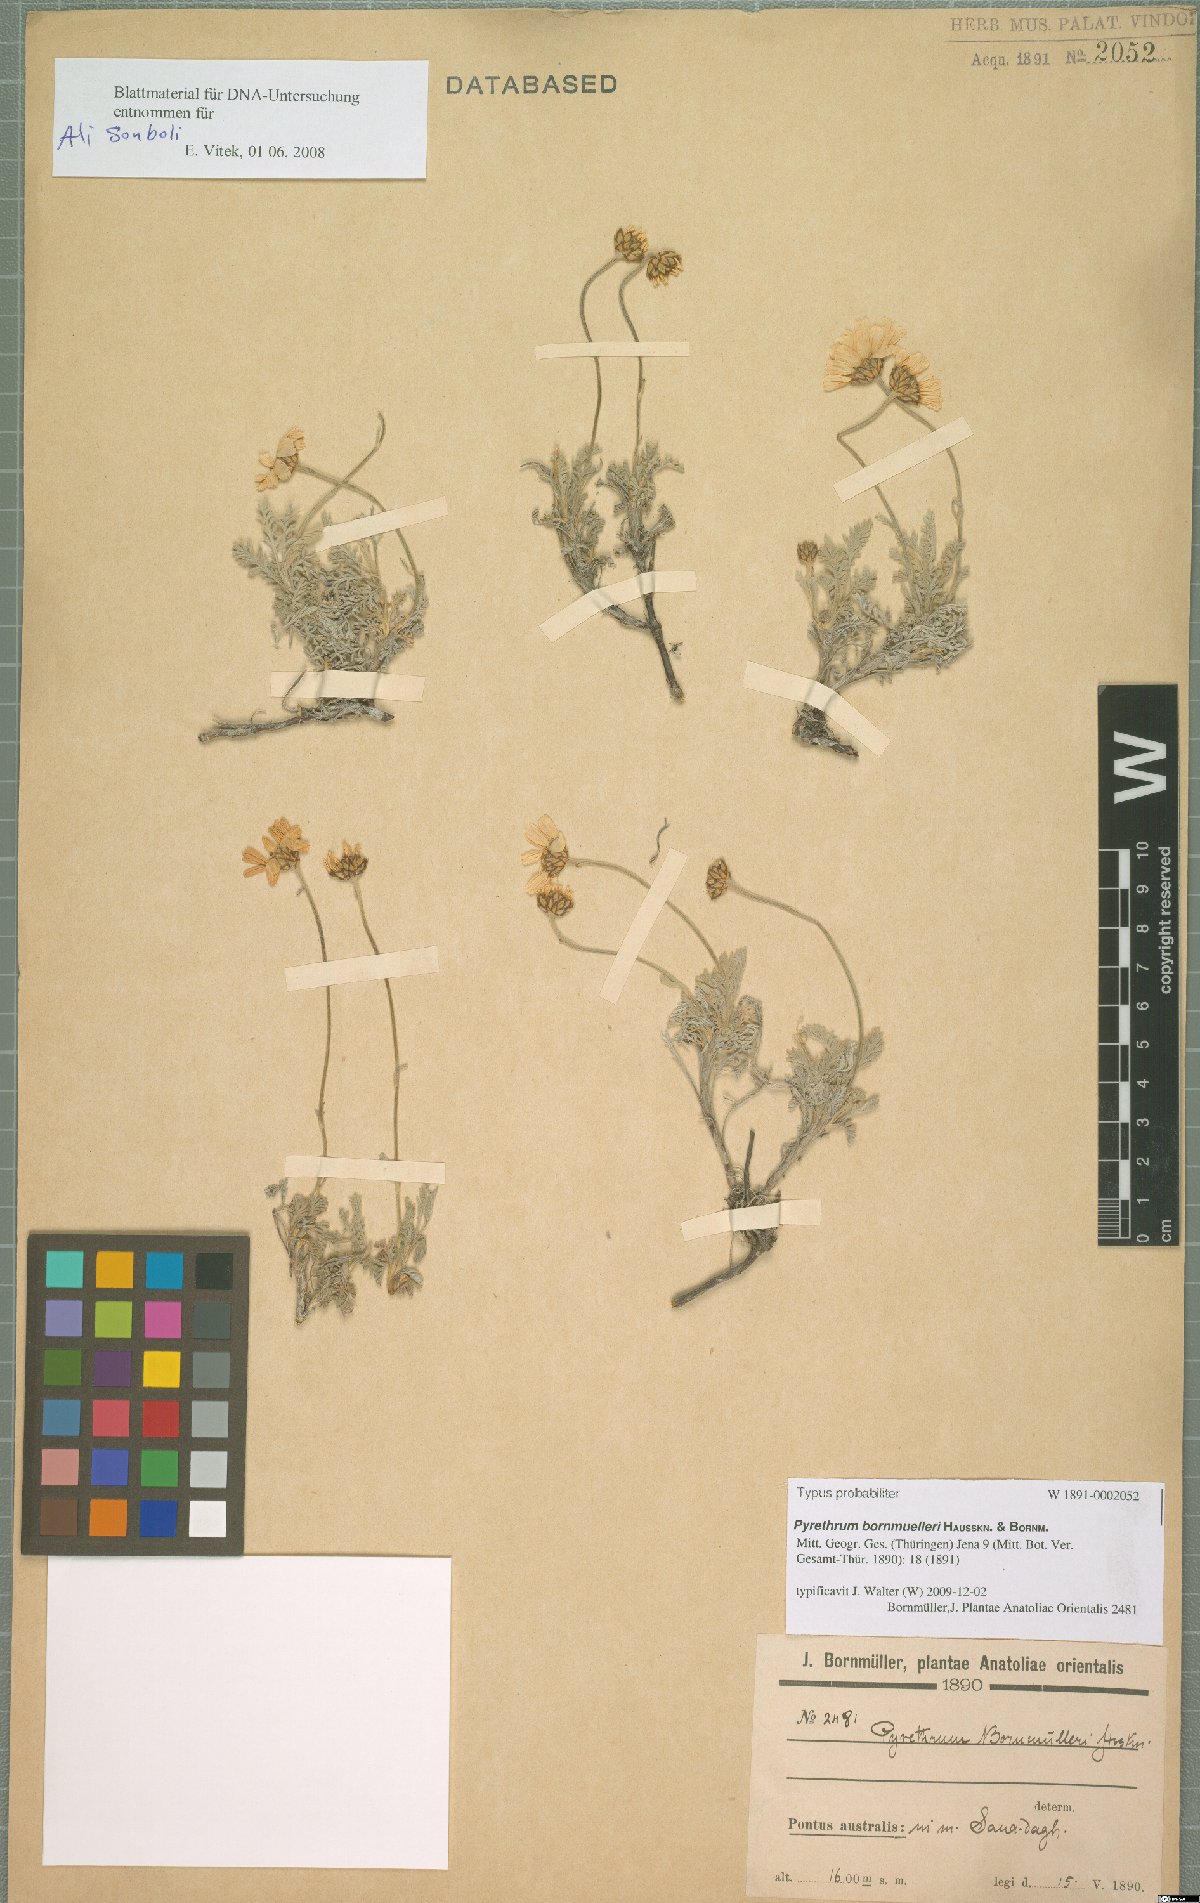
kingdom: Plantae
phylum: Tracheophyta
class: Magnoliopsida
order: Asterales
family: Asteraceae
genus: Tanacetum
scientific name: Tanacetum Pyrethrum bornmuelleri
